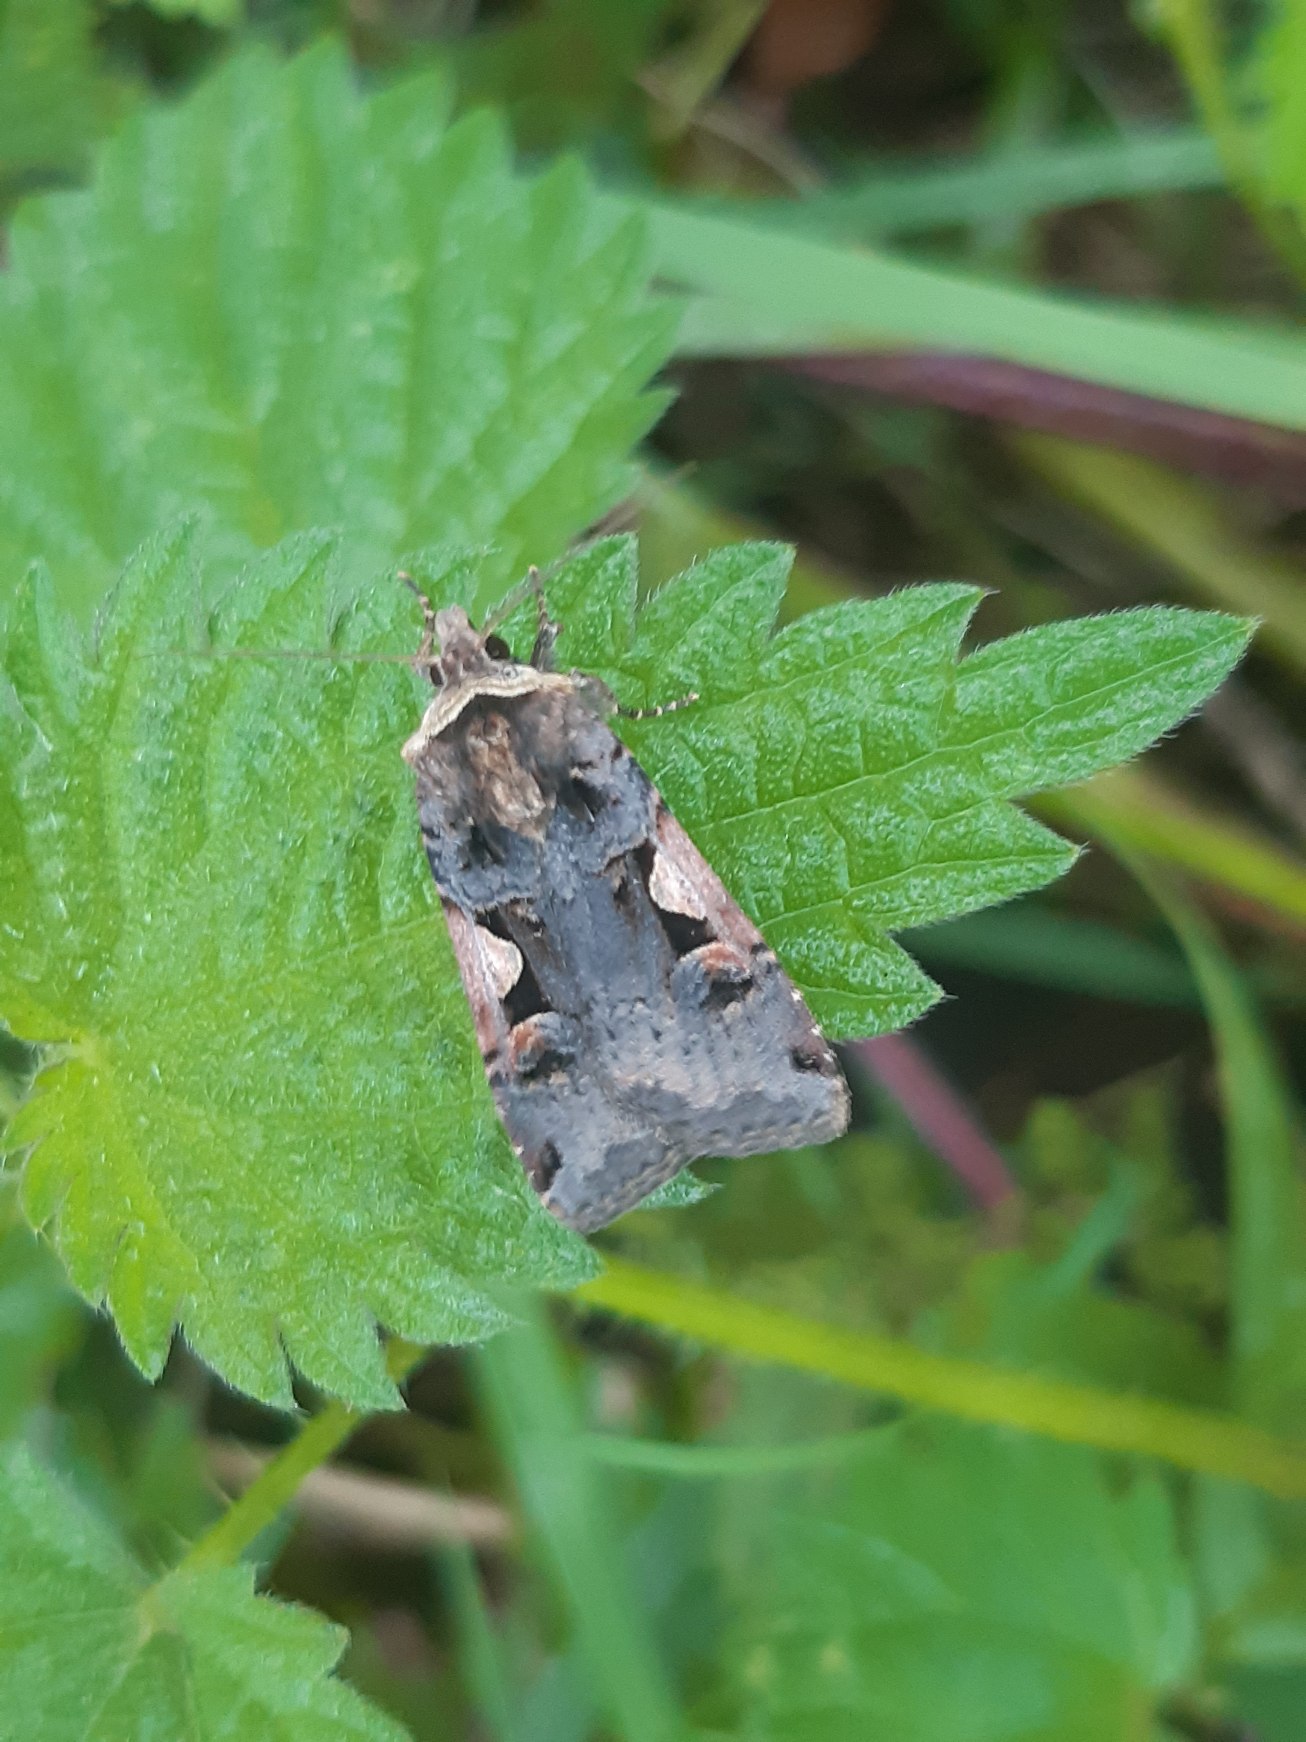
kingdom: Animalia
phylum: Arthropoda
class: Insecta
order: Lepidoptera
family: Noctuidae
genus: Xestia
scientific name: Xestia c-nigrum
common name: Det sorte c
